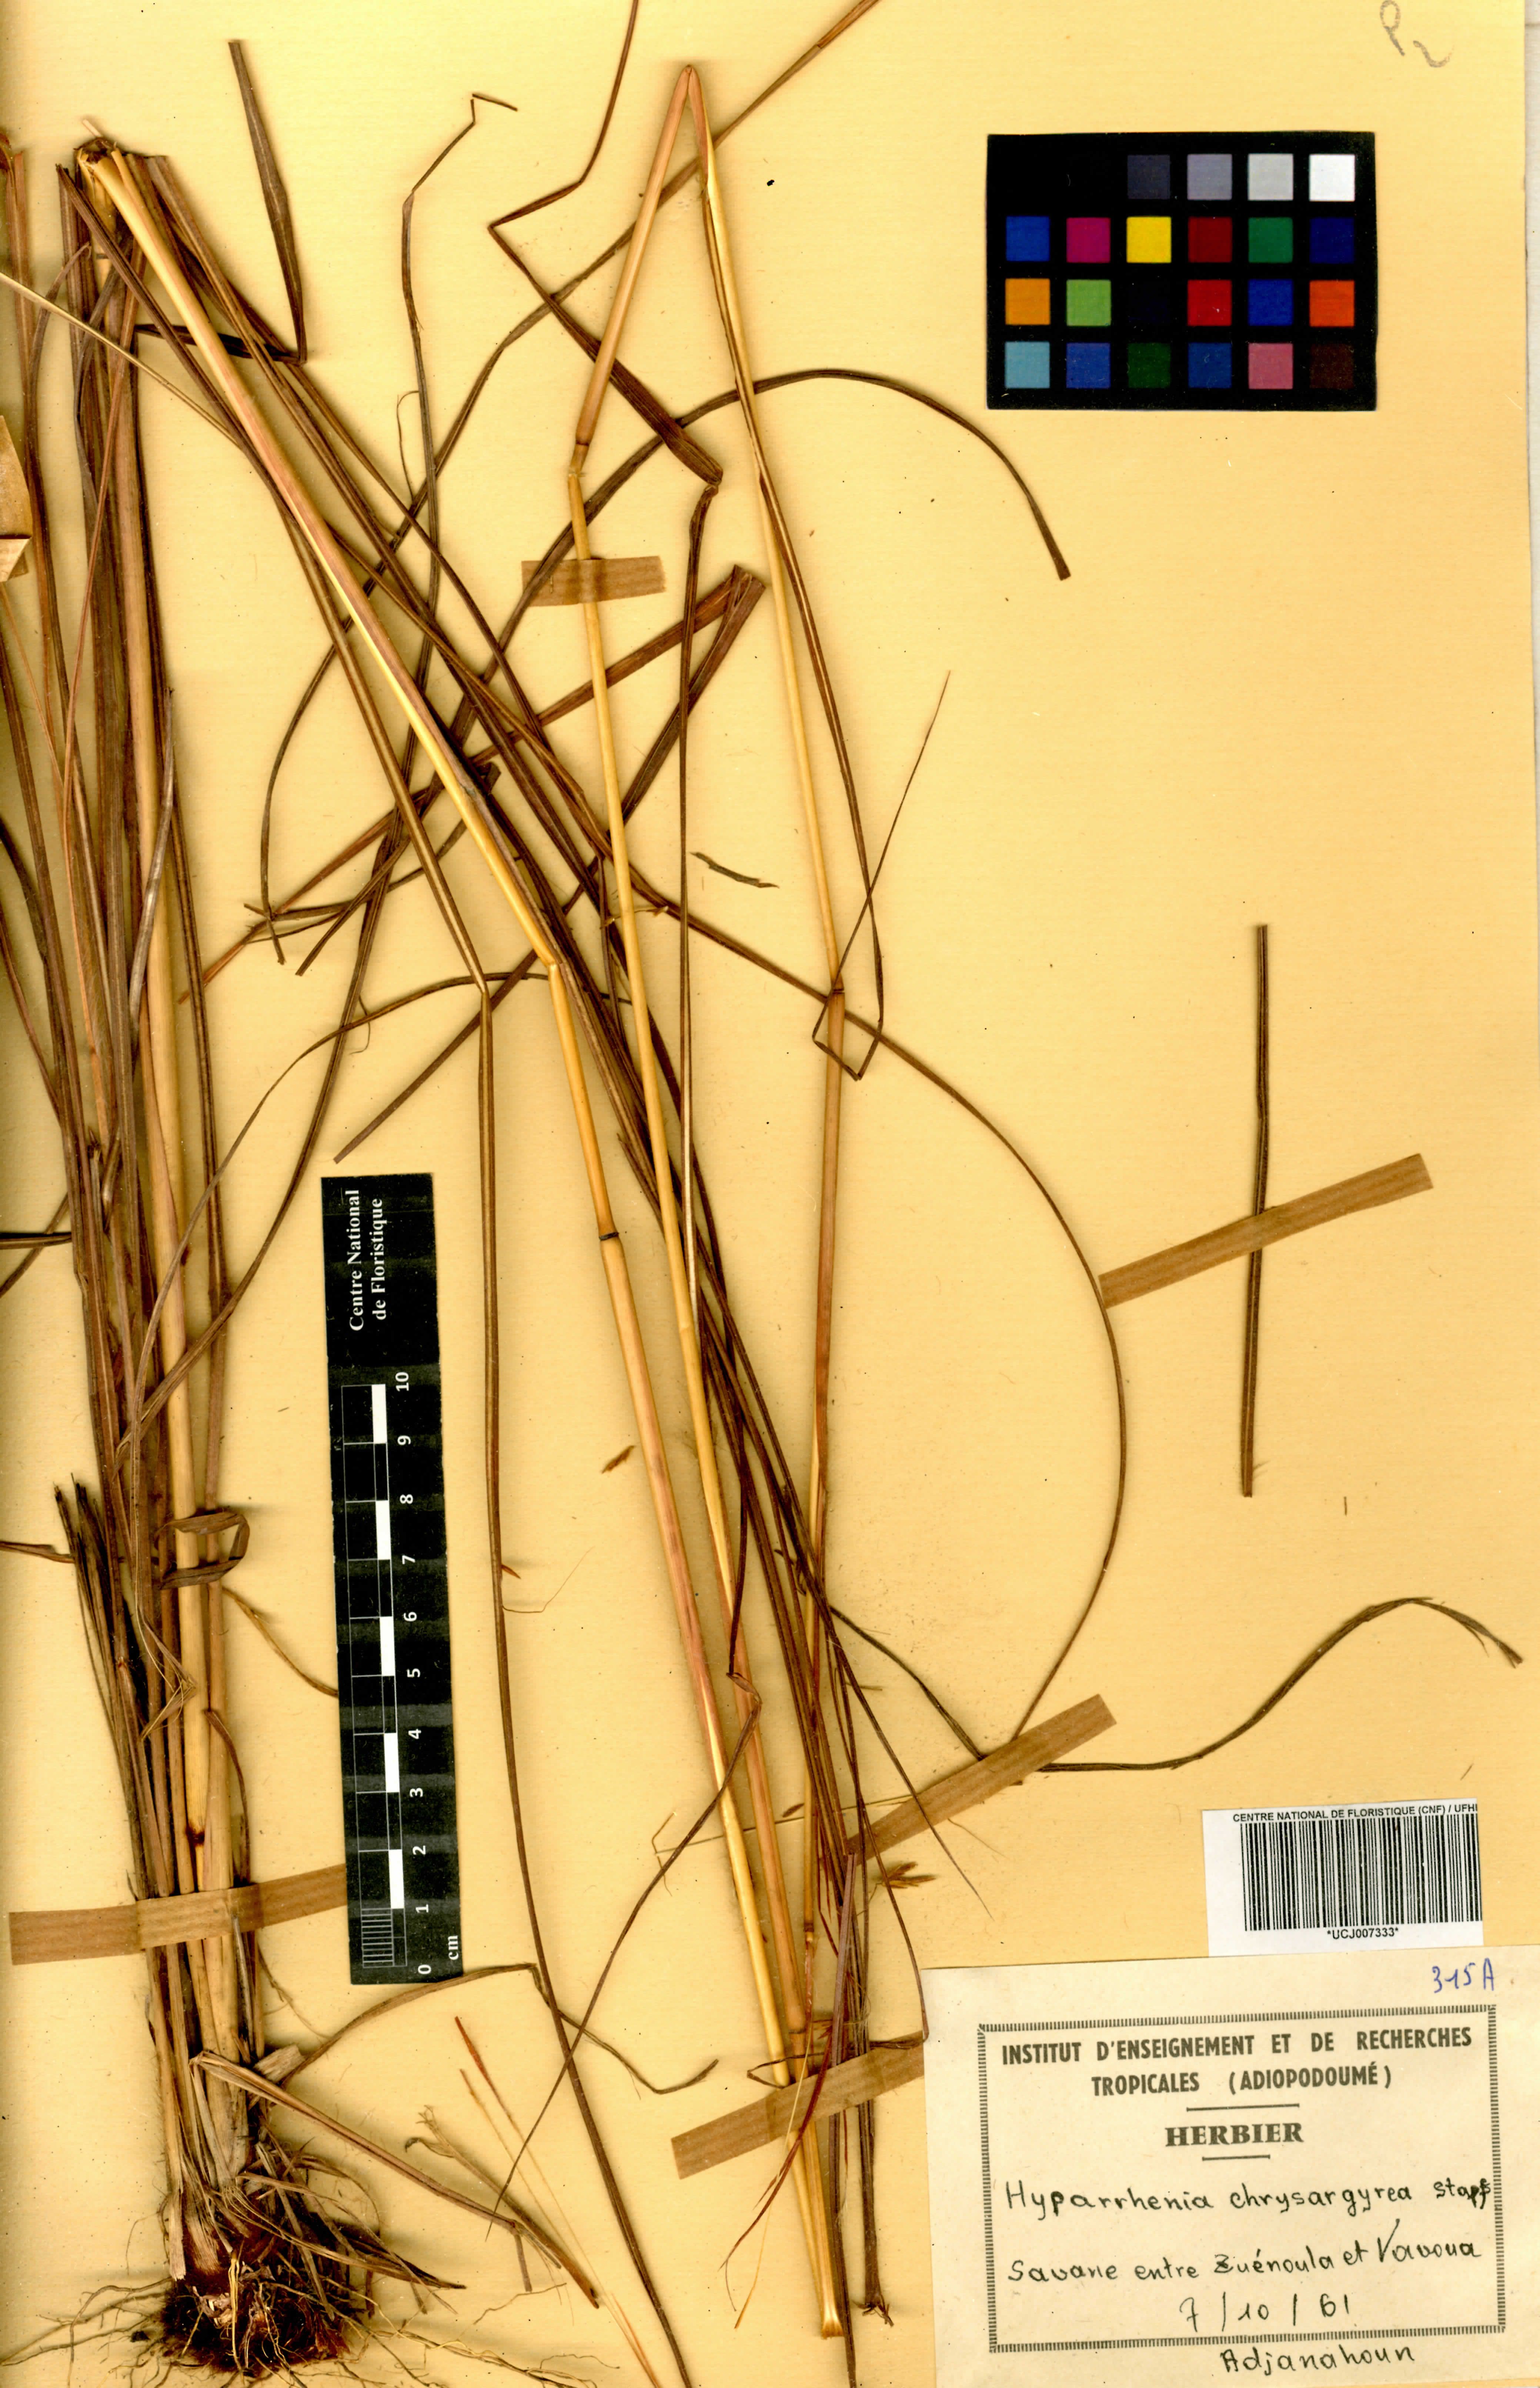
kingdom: Plantae
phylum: Tracheophyta
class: Liliopsida
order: Poales
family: Poaceae
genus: Hyparrhenia
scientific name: Hyparrhenia nyassae
